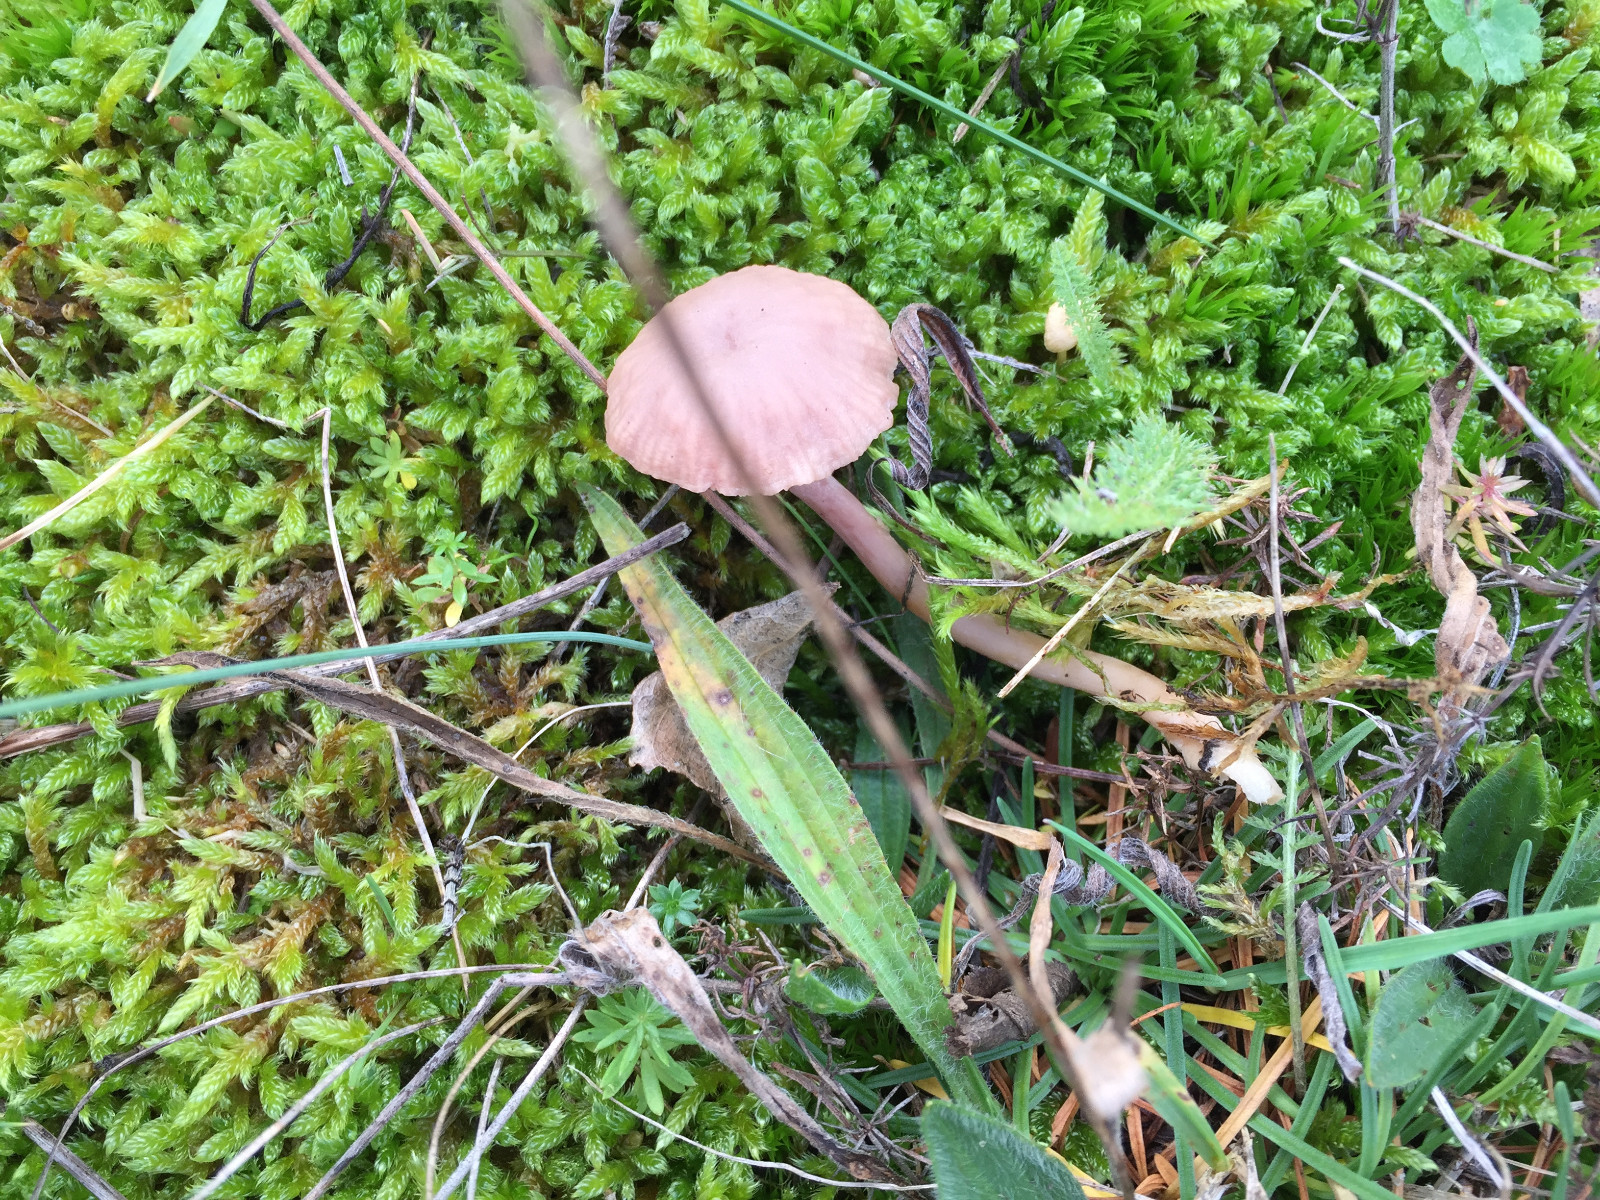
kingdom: Fungi
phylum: Basidiomycota
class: Agaricomycetes
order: Agaricales
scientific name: Agaricales
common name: champignonordenen
